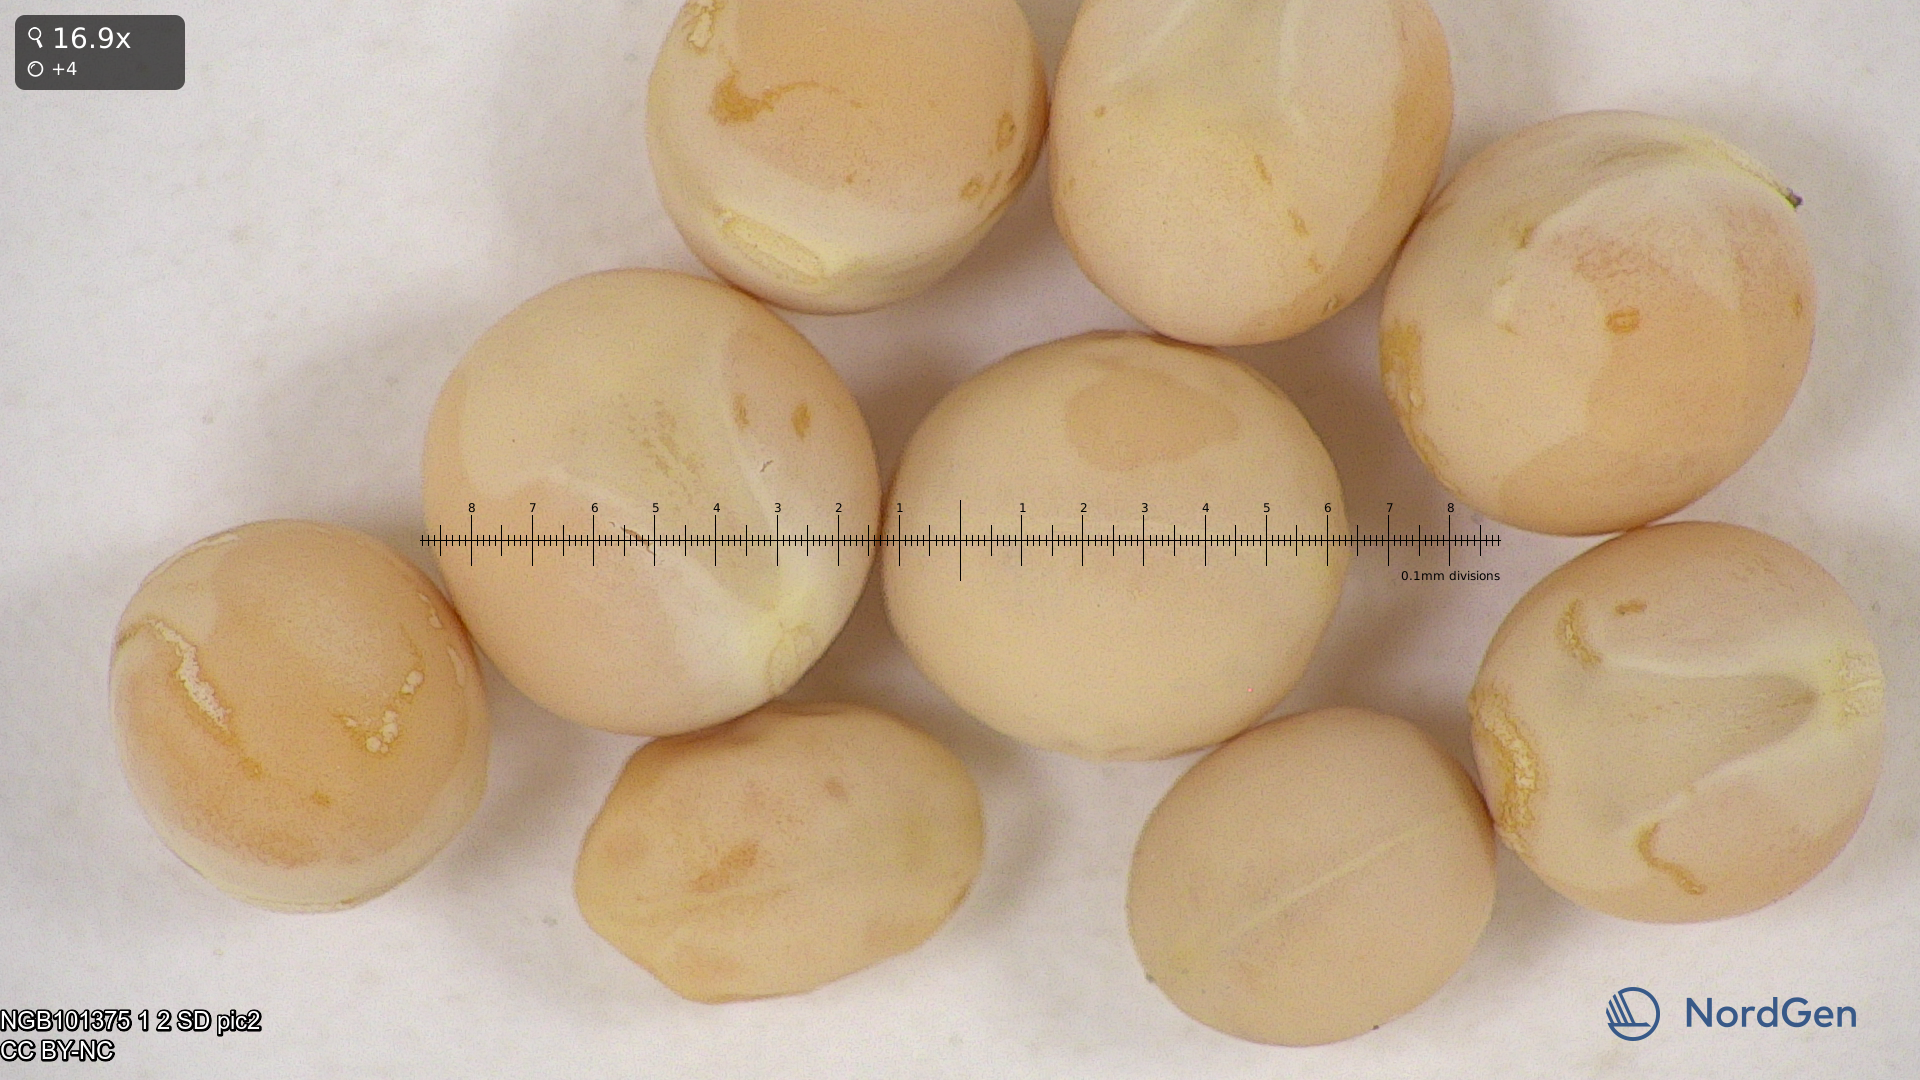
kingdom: Plantae
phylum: Tracheophyta
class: Magnoliopsida
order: Fabales
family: Fabaceae
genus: Lathyrus
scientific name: Lathyrus oleraceus
